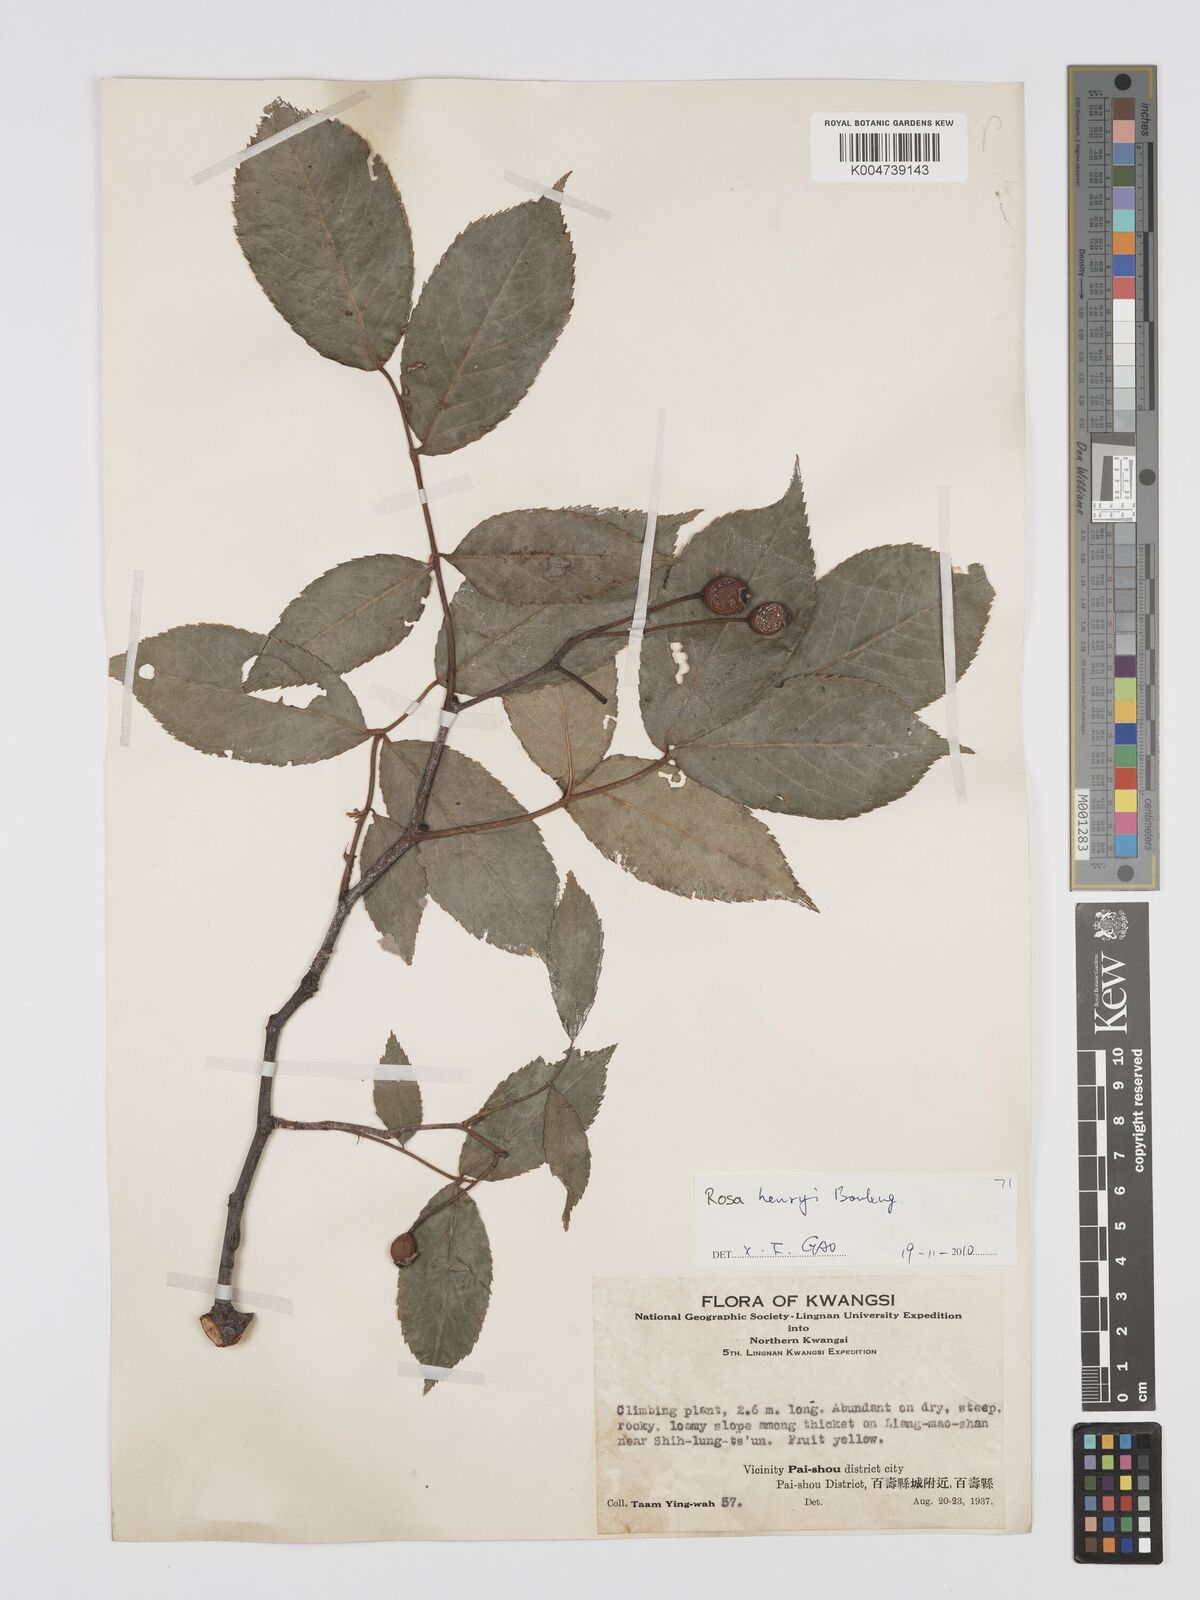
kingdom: Plantae
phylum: Tracheophyta
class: Magnoliopsida
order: Rosales
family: Rosaceae
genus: Rosa
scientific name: Rosa henryi
